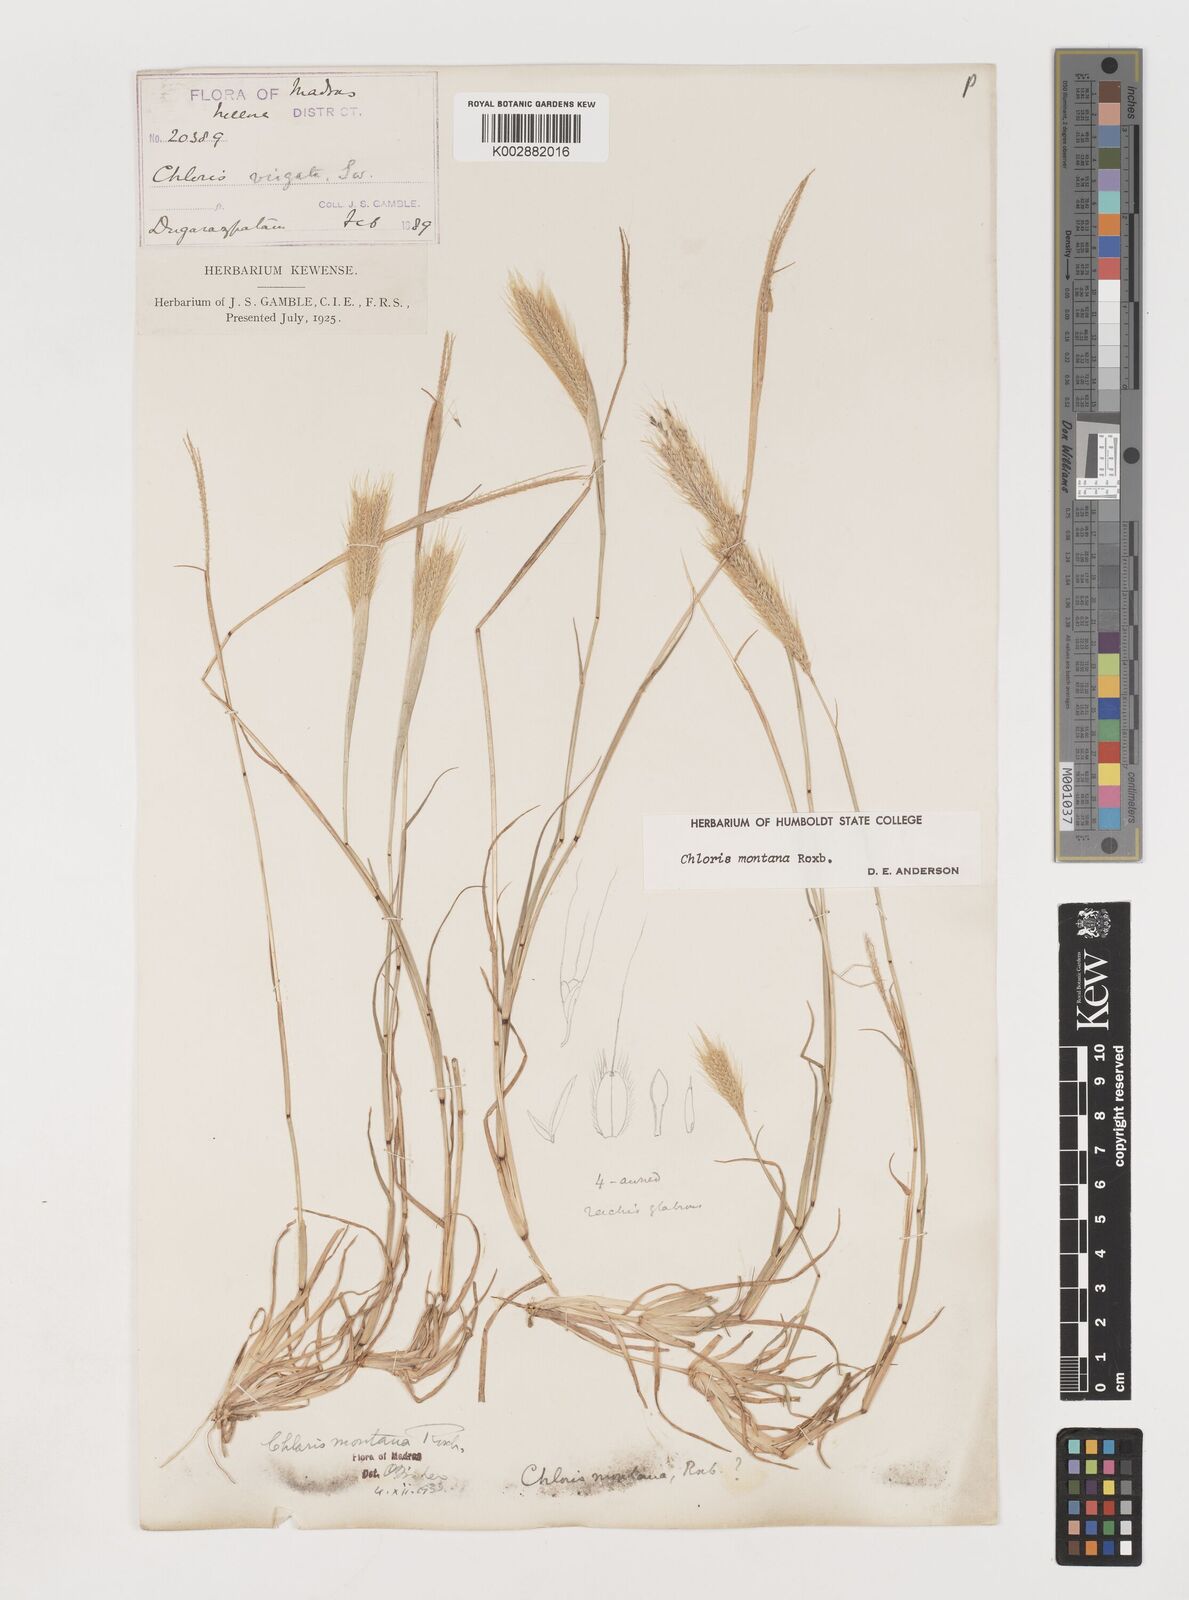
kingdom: Plantae
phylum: Tracheophyta
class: Liliopsida
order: Poales
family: Poaceae
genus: Chloris
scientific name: Chloris montana
